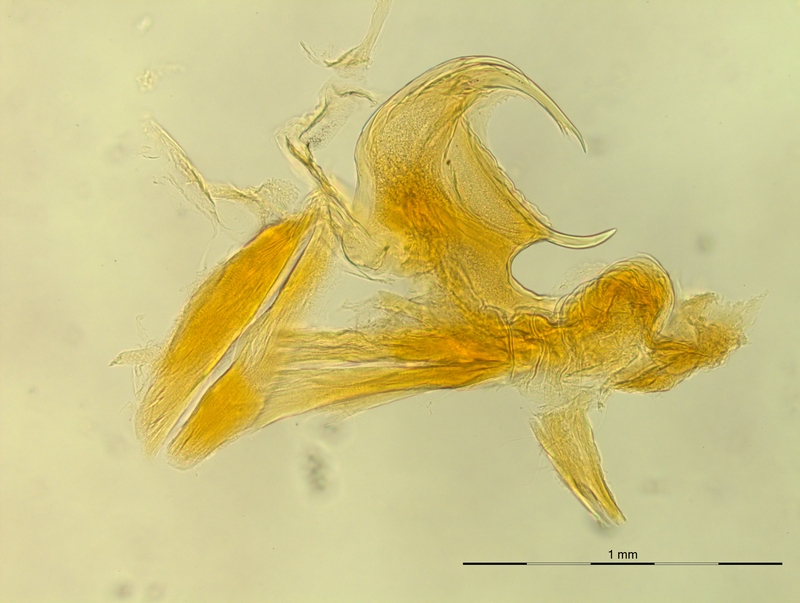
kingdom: Animalia
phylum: Arthropoda
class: Diplopoda
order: Chordeumatida
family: Craspedosomatidae
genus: Rhymogona
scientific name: Rhymogona montivaga
